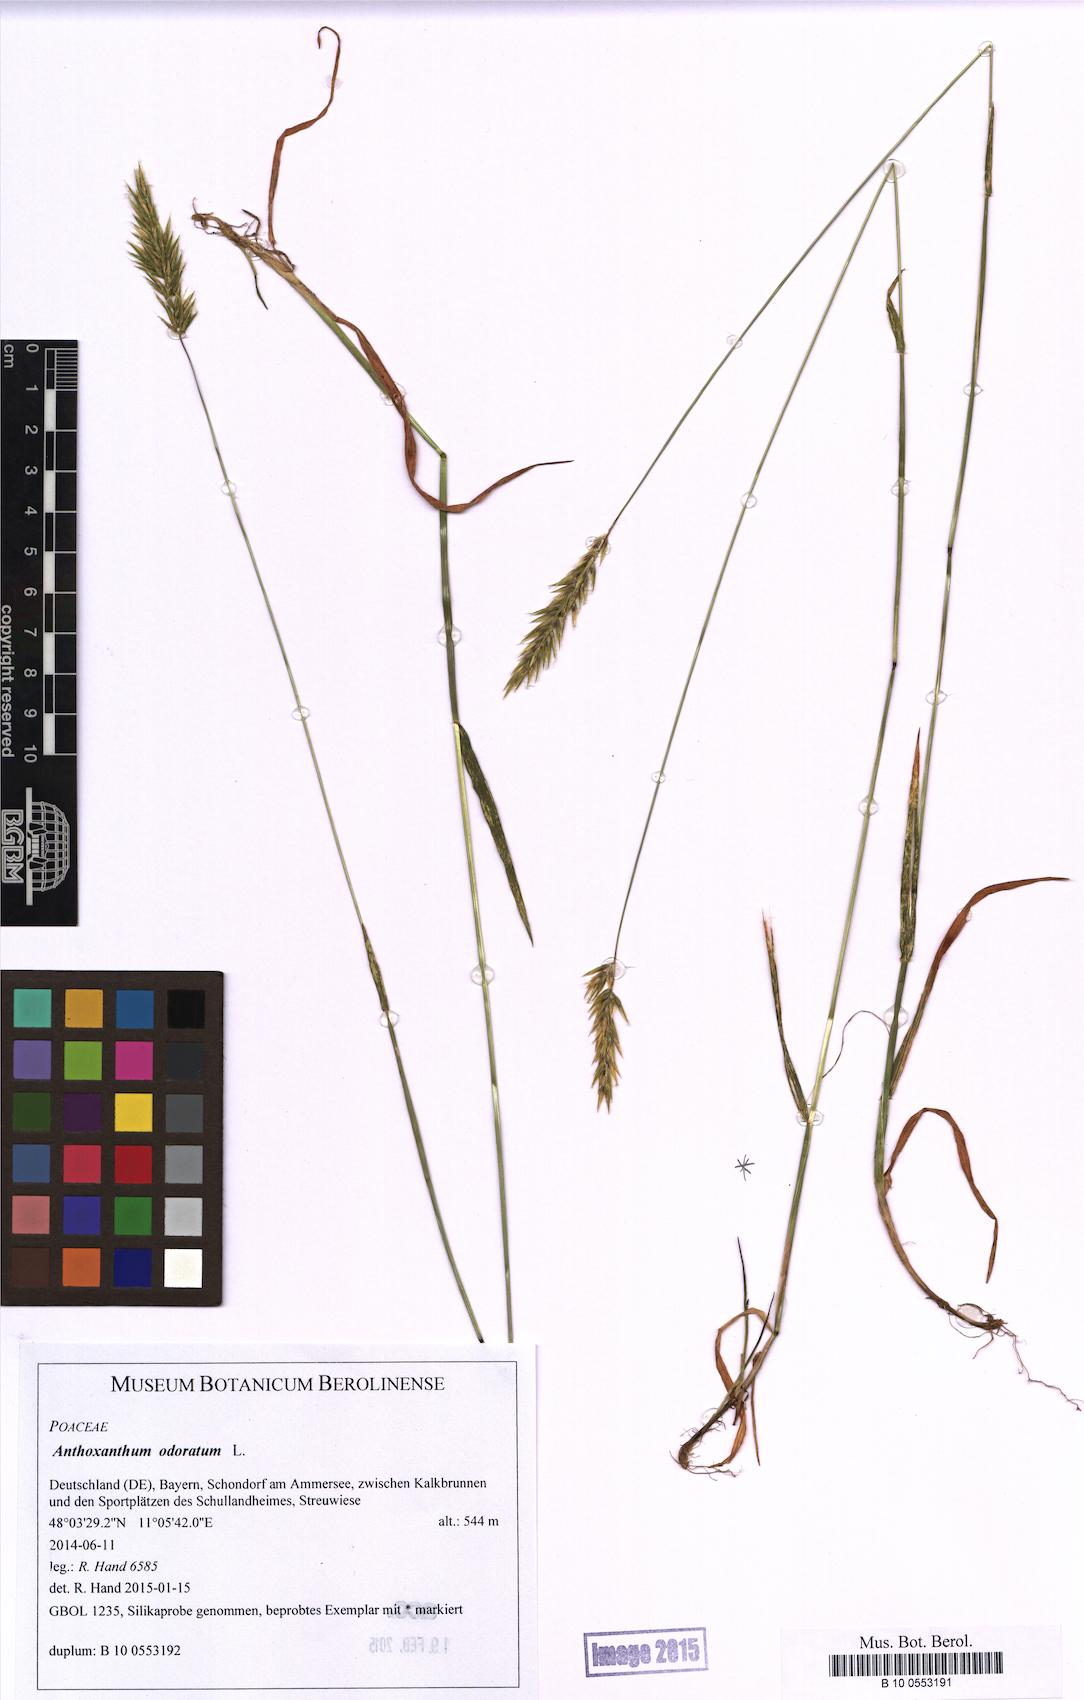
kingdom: Plantae
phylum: Tracheophyta
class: Liliopsida
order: Poales
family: Poaceae
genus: Anthoxanthum
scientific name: Anthoxanthum odoratum
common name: Sweet vernalgrass
